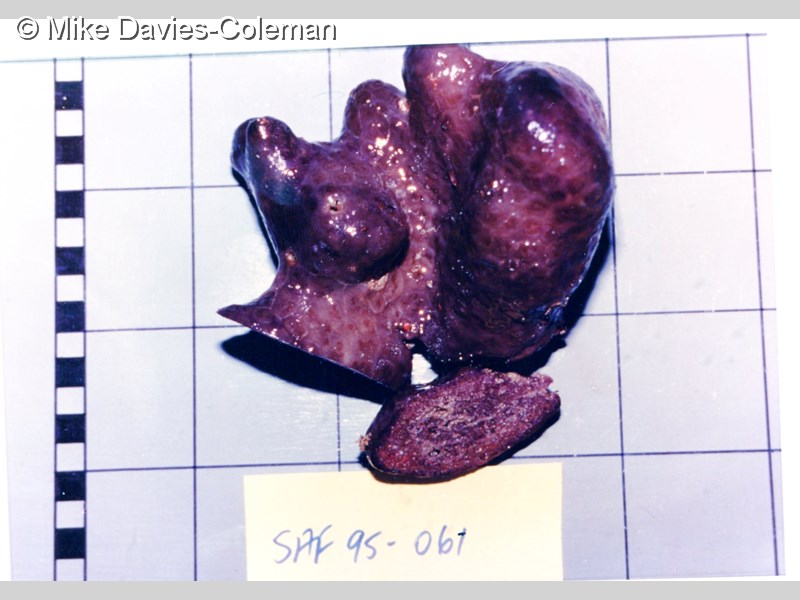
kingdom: Animalia
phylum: Chordata
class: Ascidiacea
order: Aplousobranchia
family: Polyclinidae
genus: Aplidium
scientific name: Aplidium
